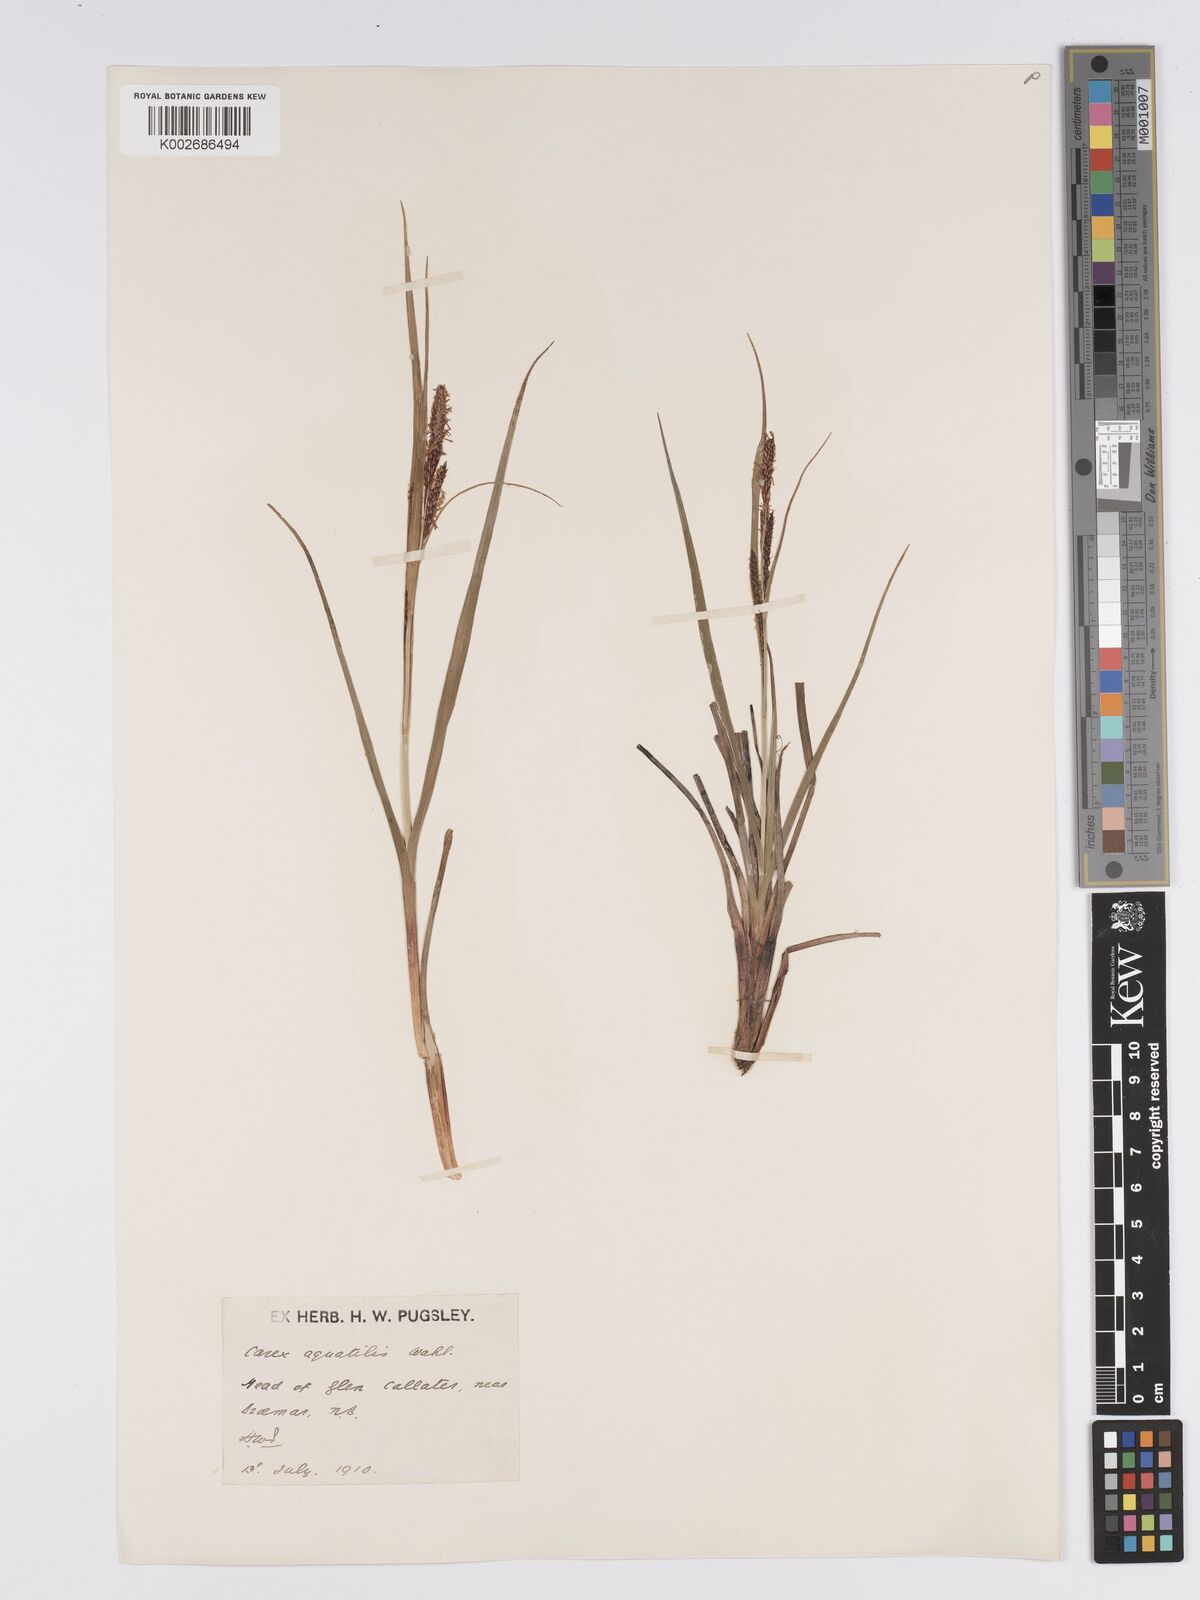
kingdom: Plantae
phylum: Tracheophyta
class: Liliopsida
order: Poales
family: Cyperaceae
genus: Carex
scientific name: Carex aquatilis
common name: Water sedge
